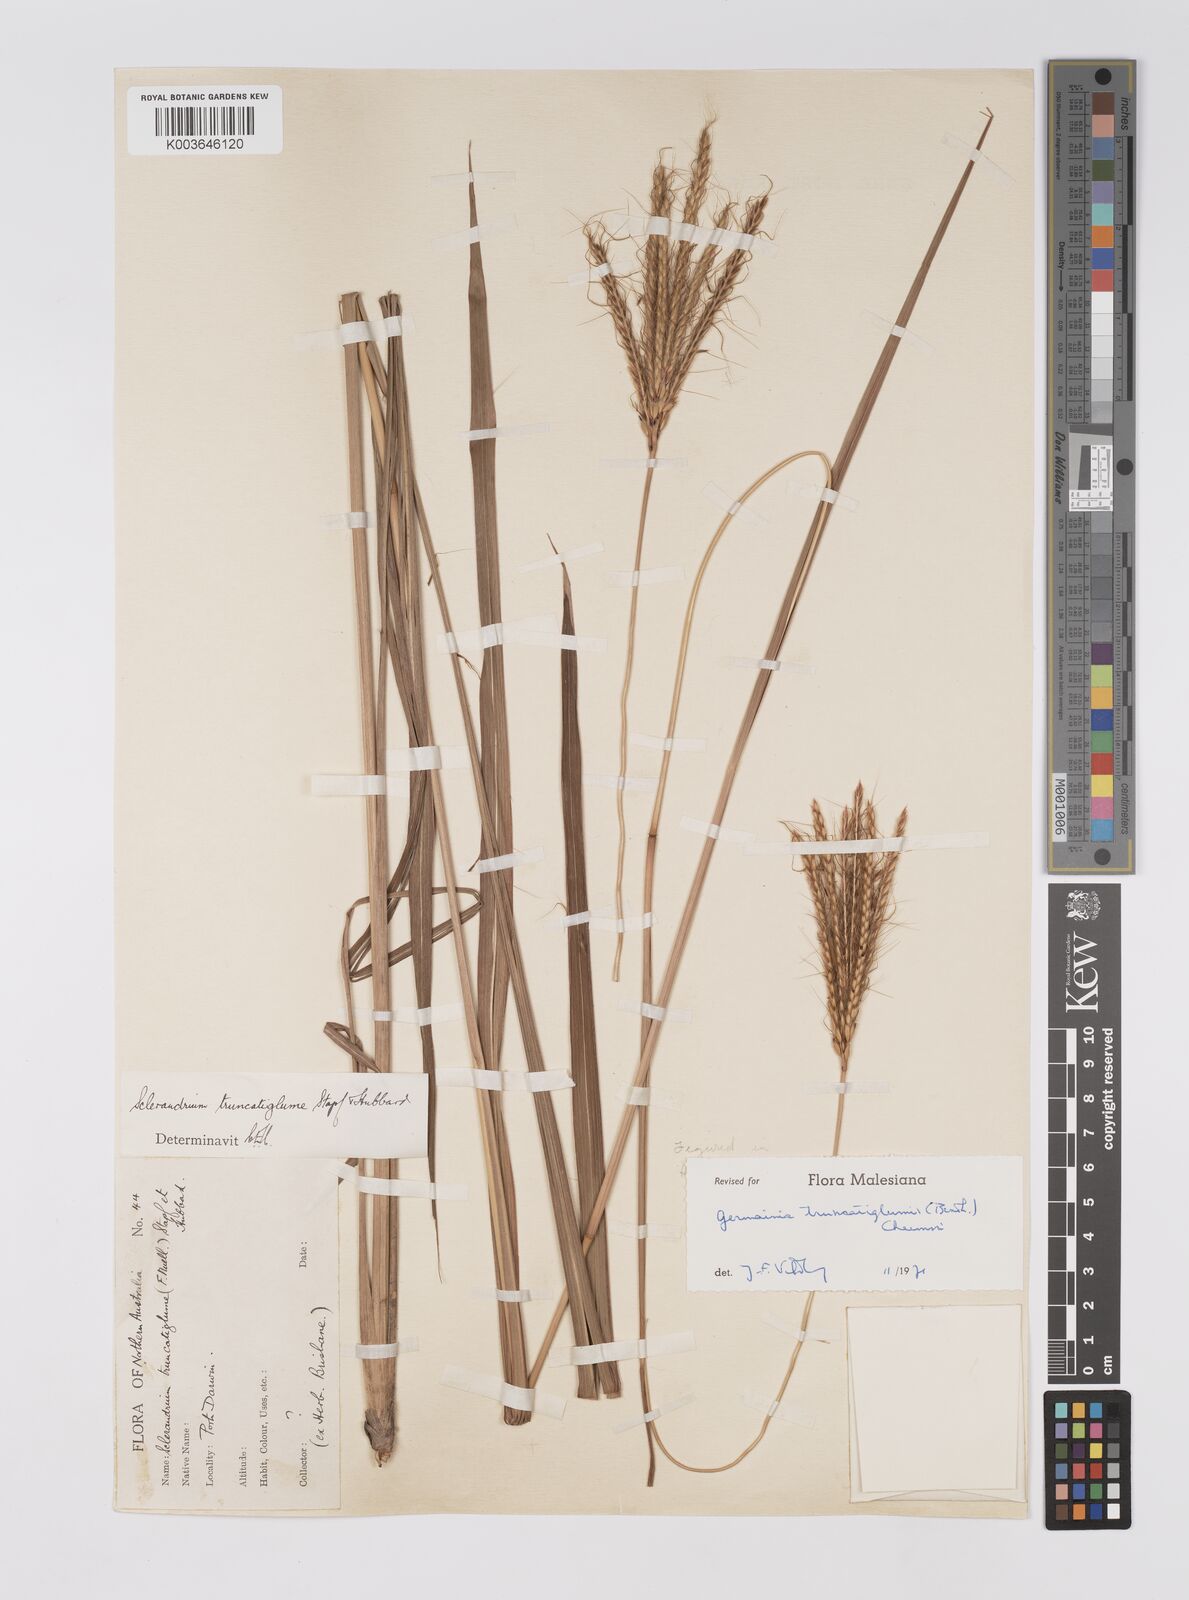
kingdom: Plantae
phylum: Tracheophyta
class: Liliopsida
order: Poales
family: Poaceae
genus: Germainia
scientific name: Germainia truncatiglumis
